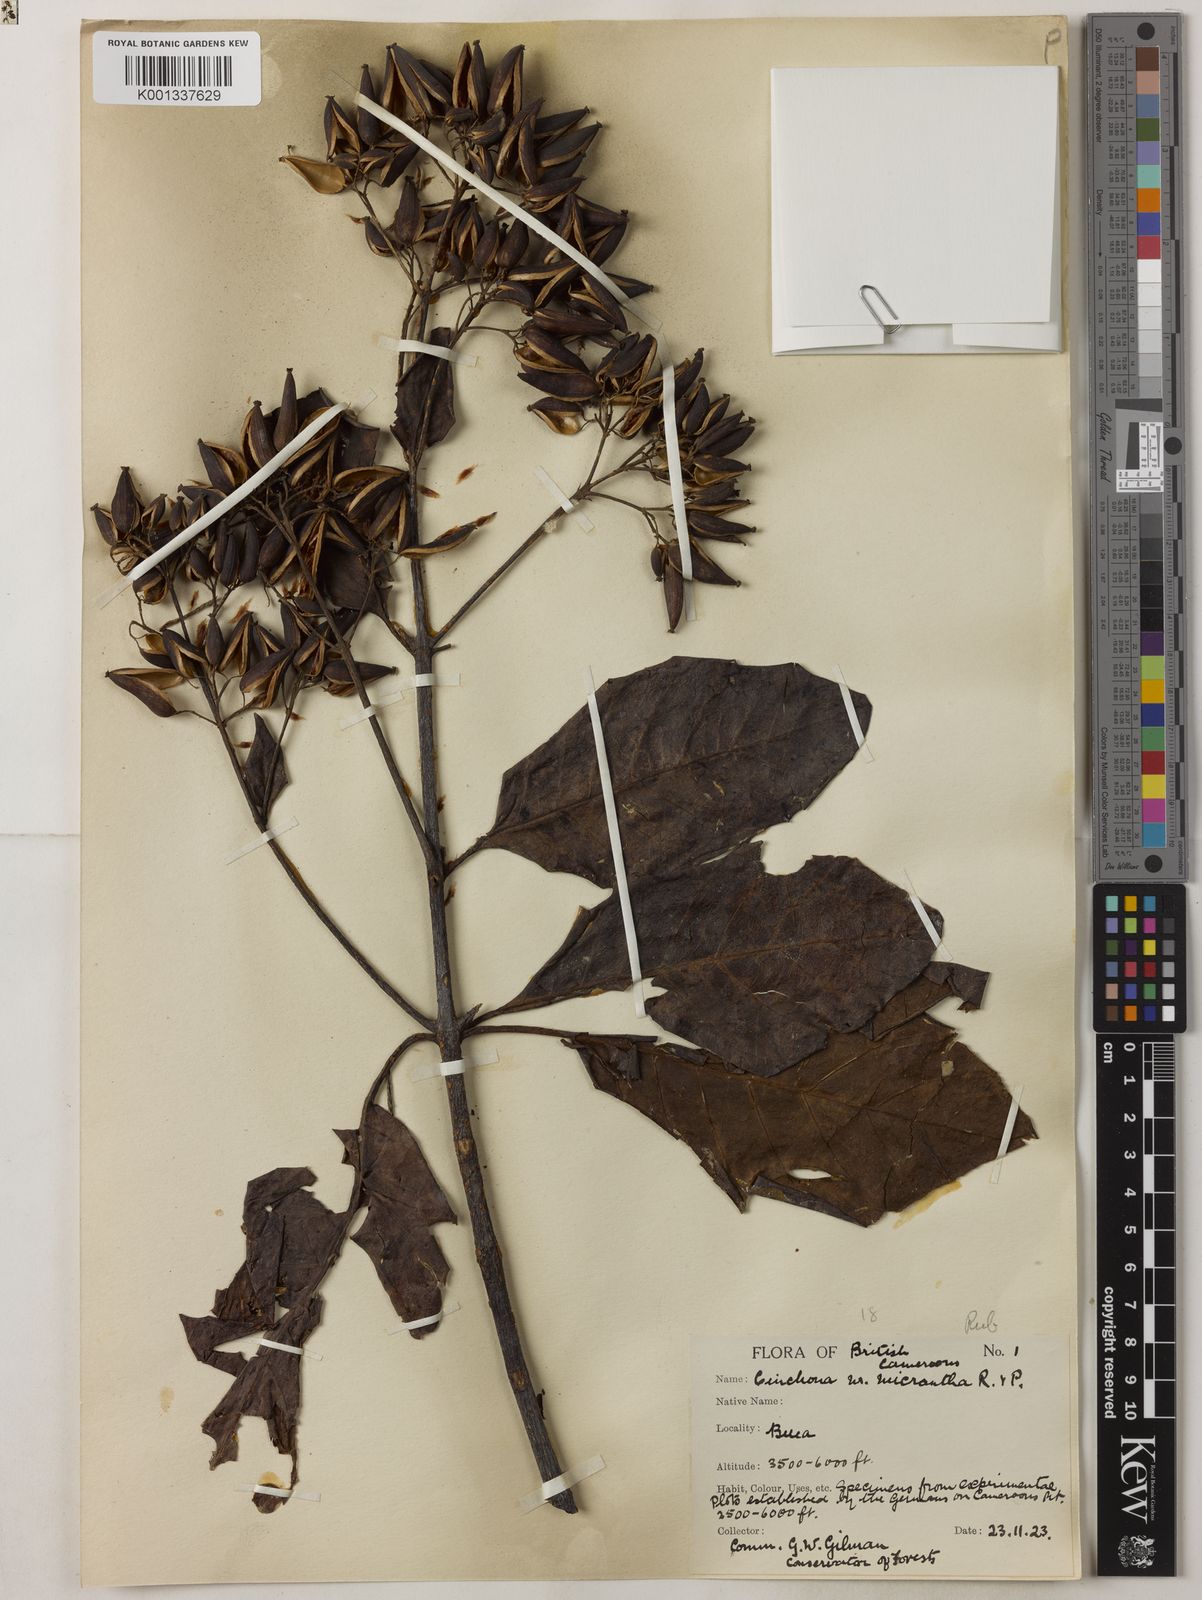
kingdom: Plantae
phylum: Tracheophyta
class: Magnoliopsida
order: Gentianales
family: Rubiaceae
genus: Cinchona
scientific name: Cinchona micrantha
